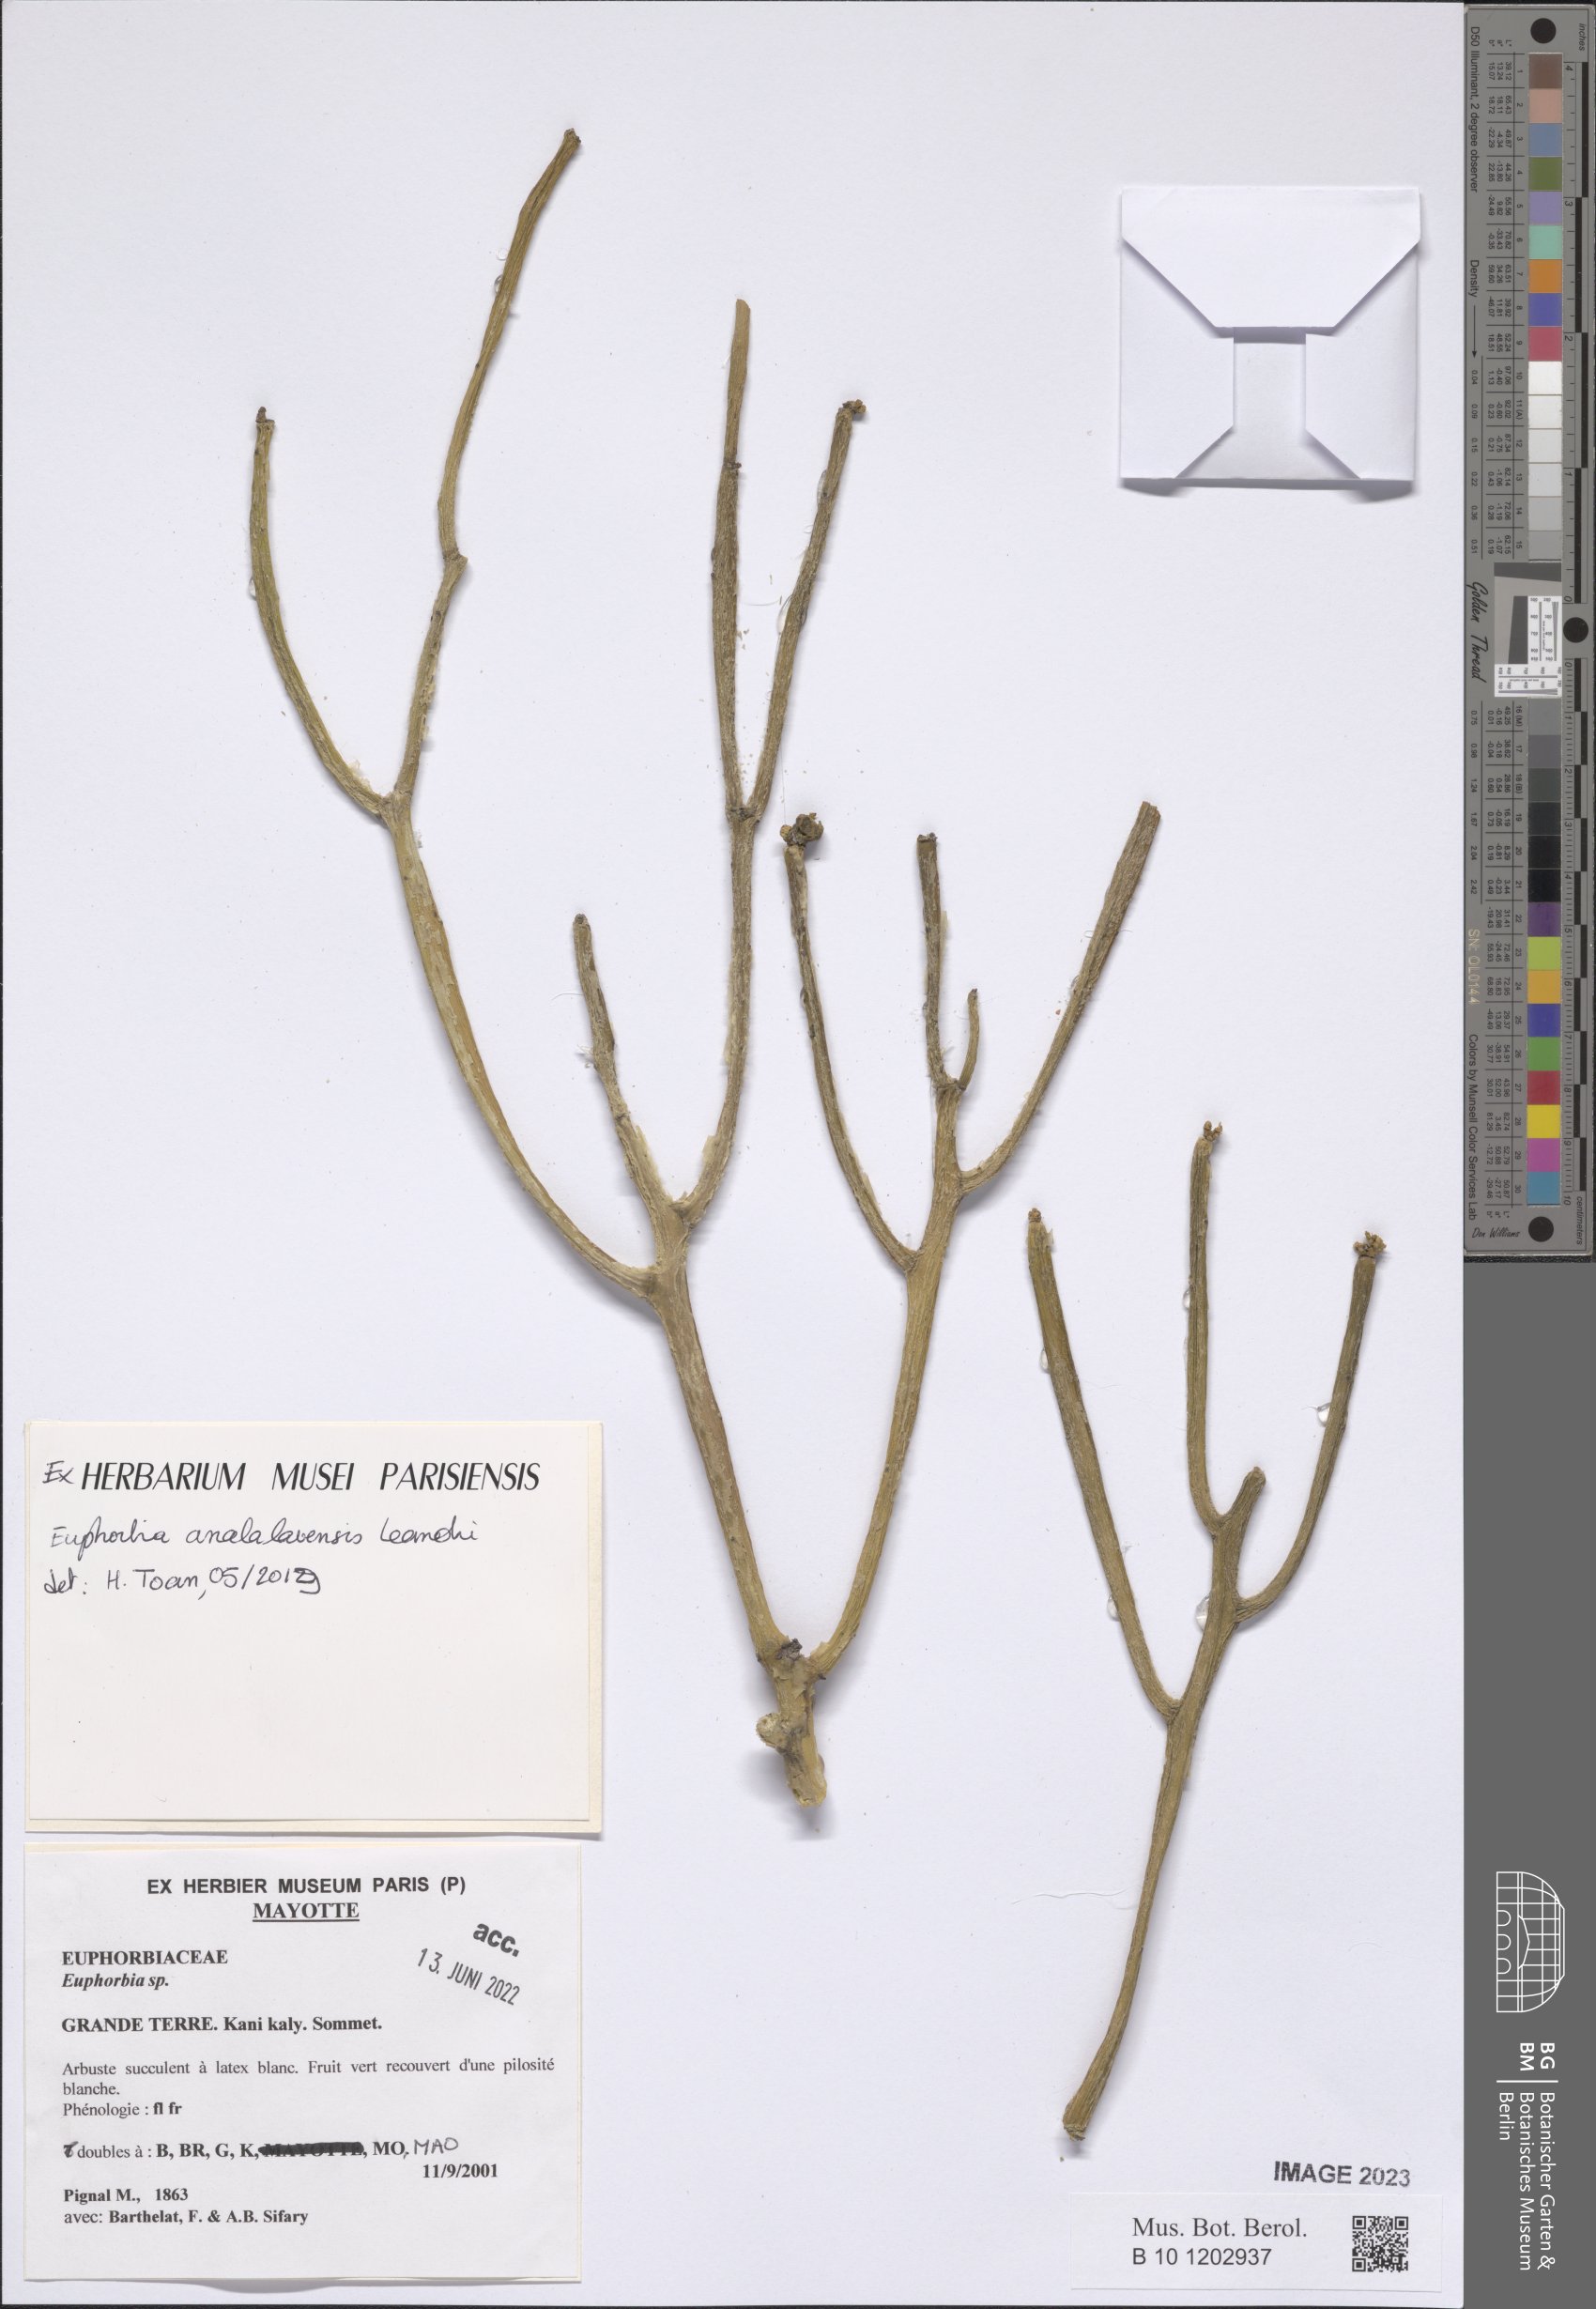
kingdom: Plantae
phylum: Tracheophyta
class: Magnoliopsida
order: Malpighiales
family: Euphorbiaceae
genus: Euphorbia
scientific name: Euphorbia analalavensis
